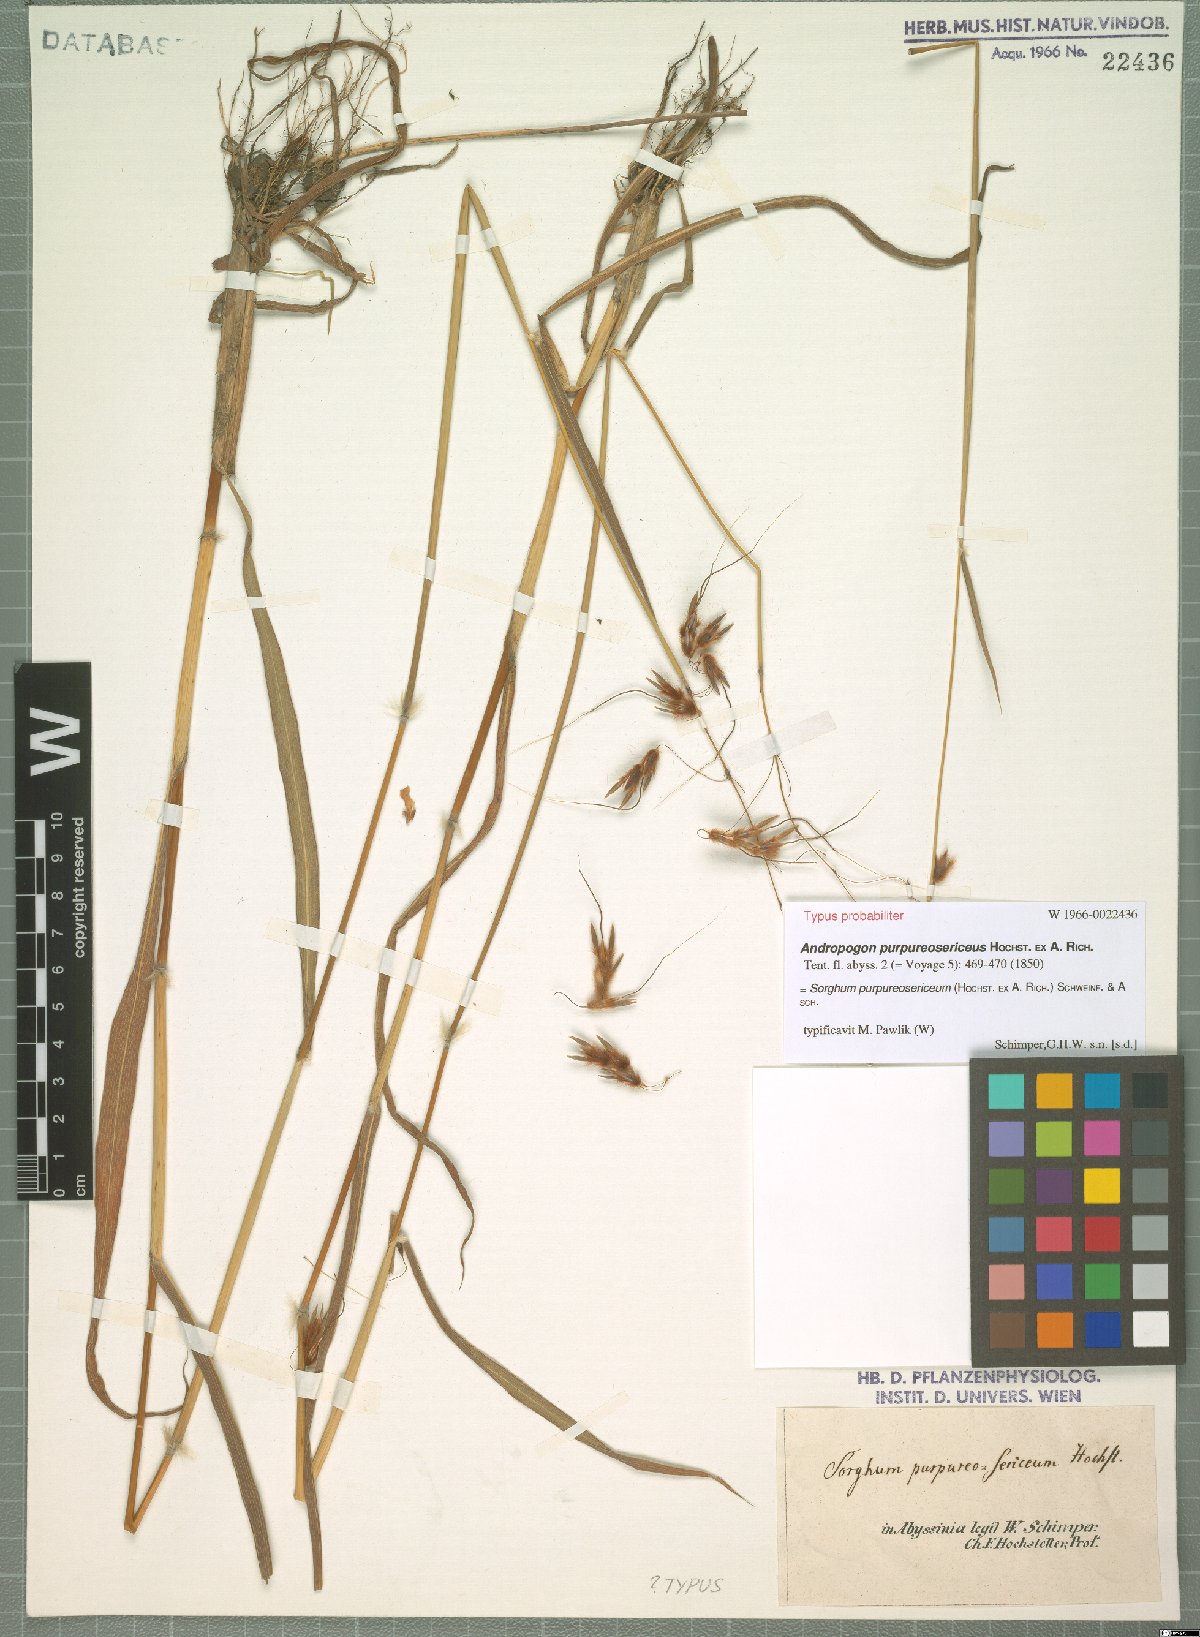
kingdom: Plantae
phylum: Tracheophyta
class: Liliopsida
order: Poales
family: Poaceae
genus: Sarga
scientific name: Sarga purpureosericea
